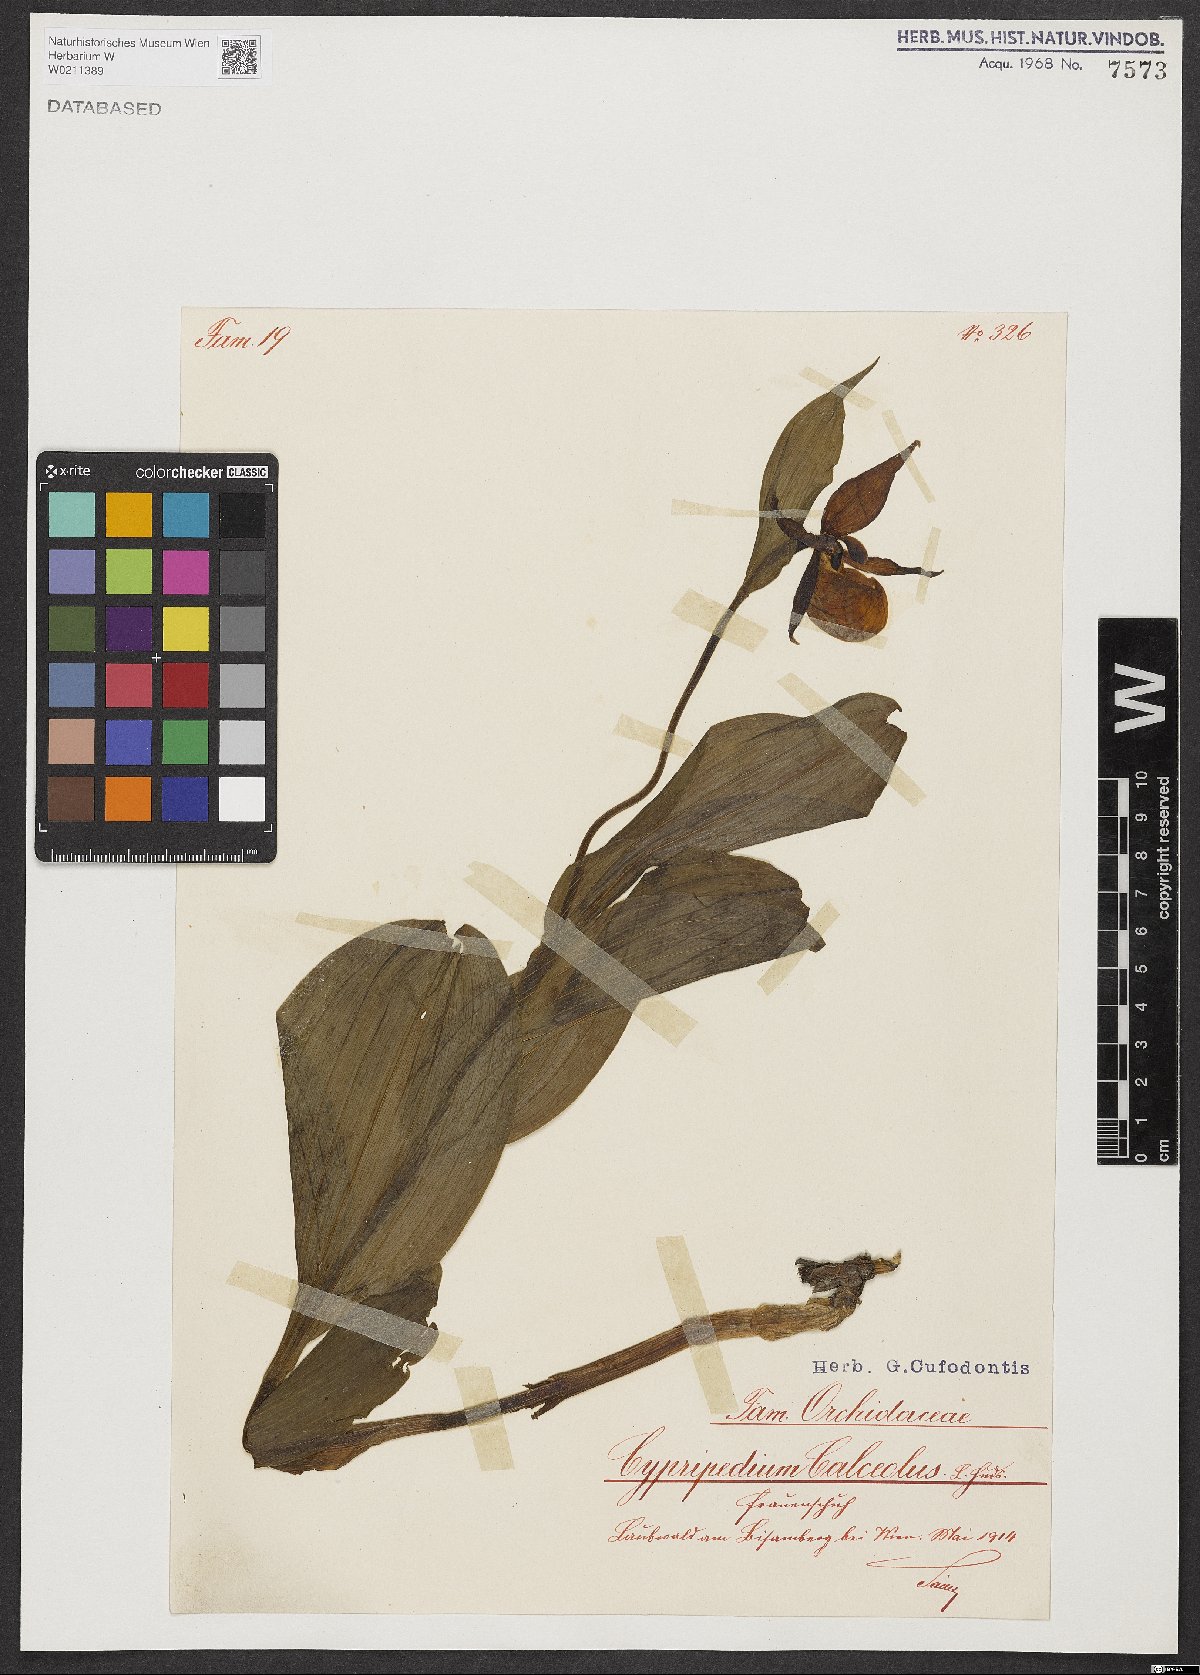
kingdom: Plantae
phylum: Tracheophyta
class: Liliopsida
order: Asparagales
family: Orchidaceae
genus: Cypripedium
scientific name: Cypripedium calceolus
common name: Lady's-slipper
